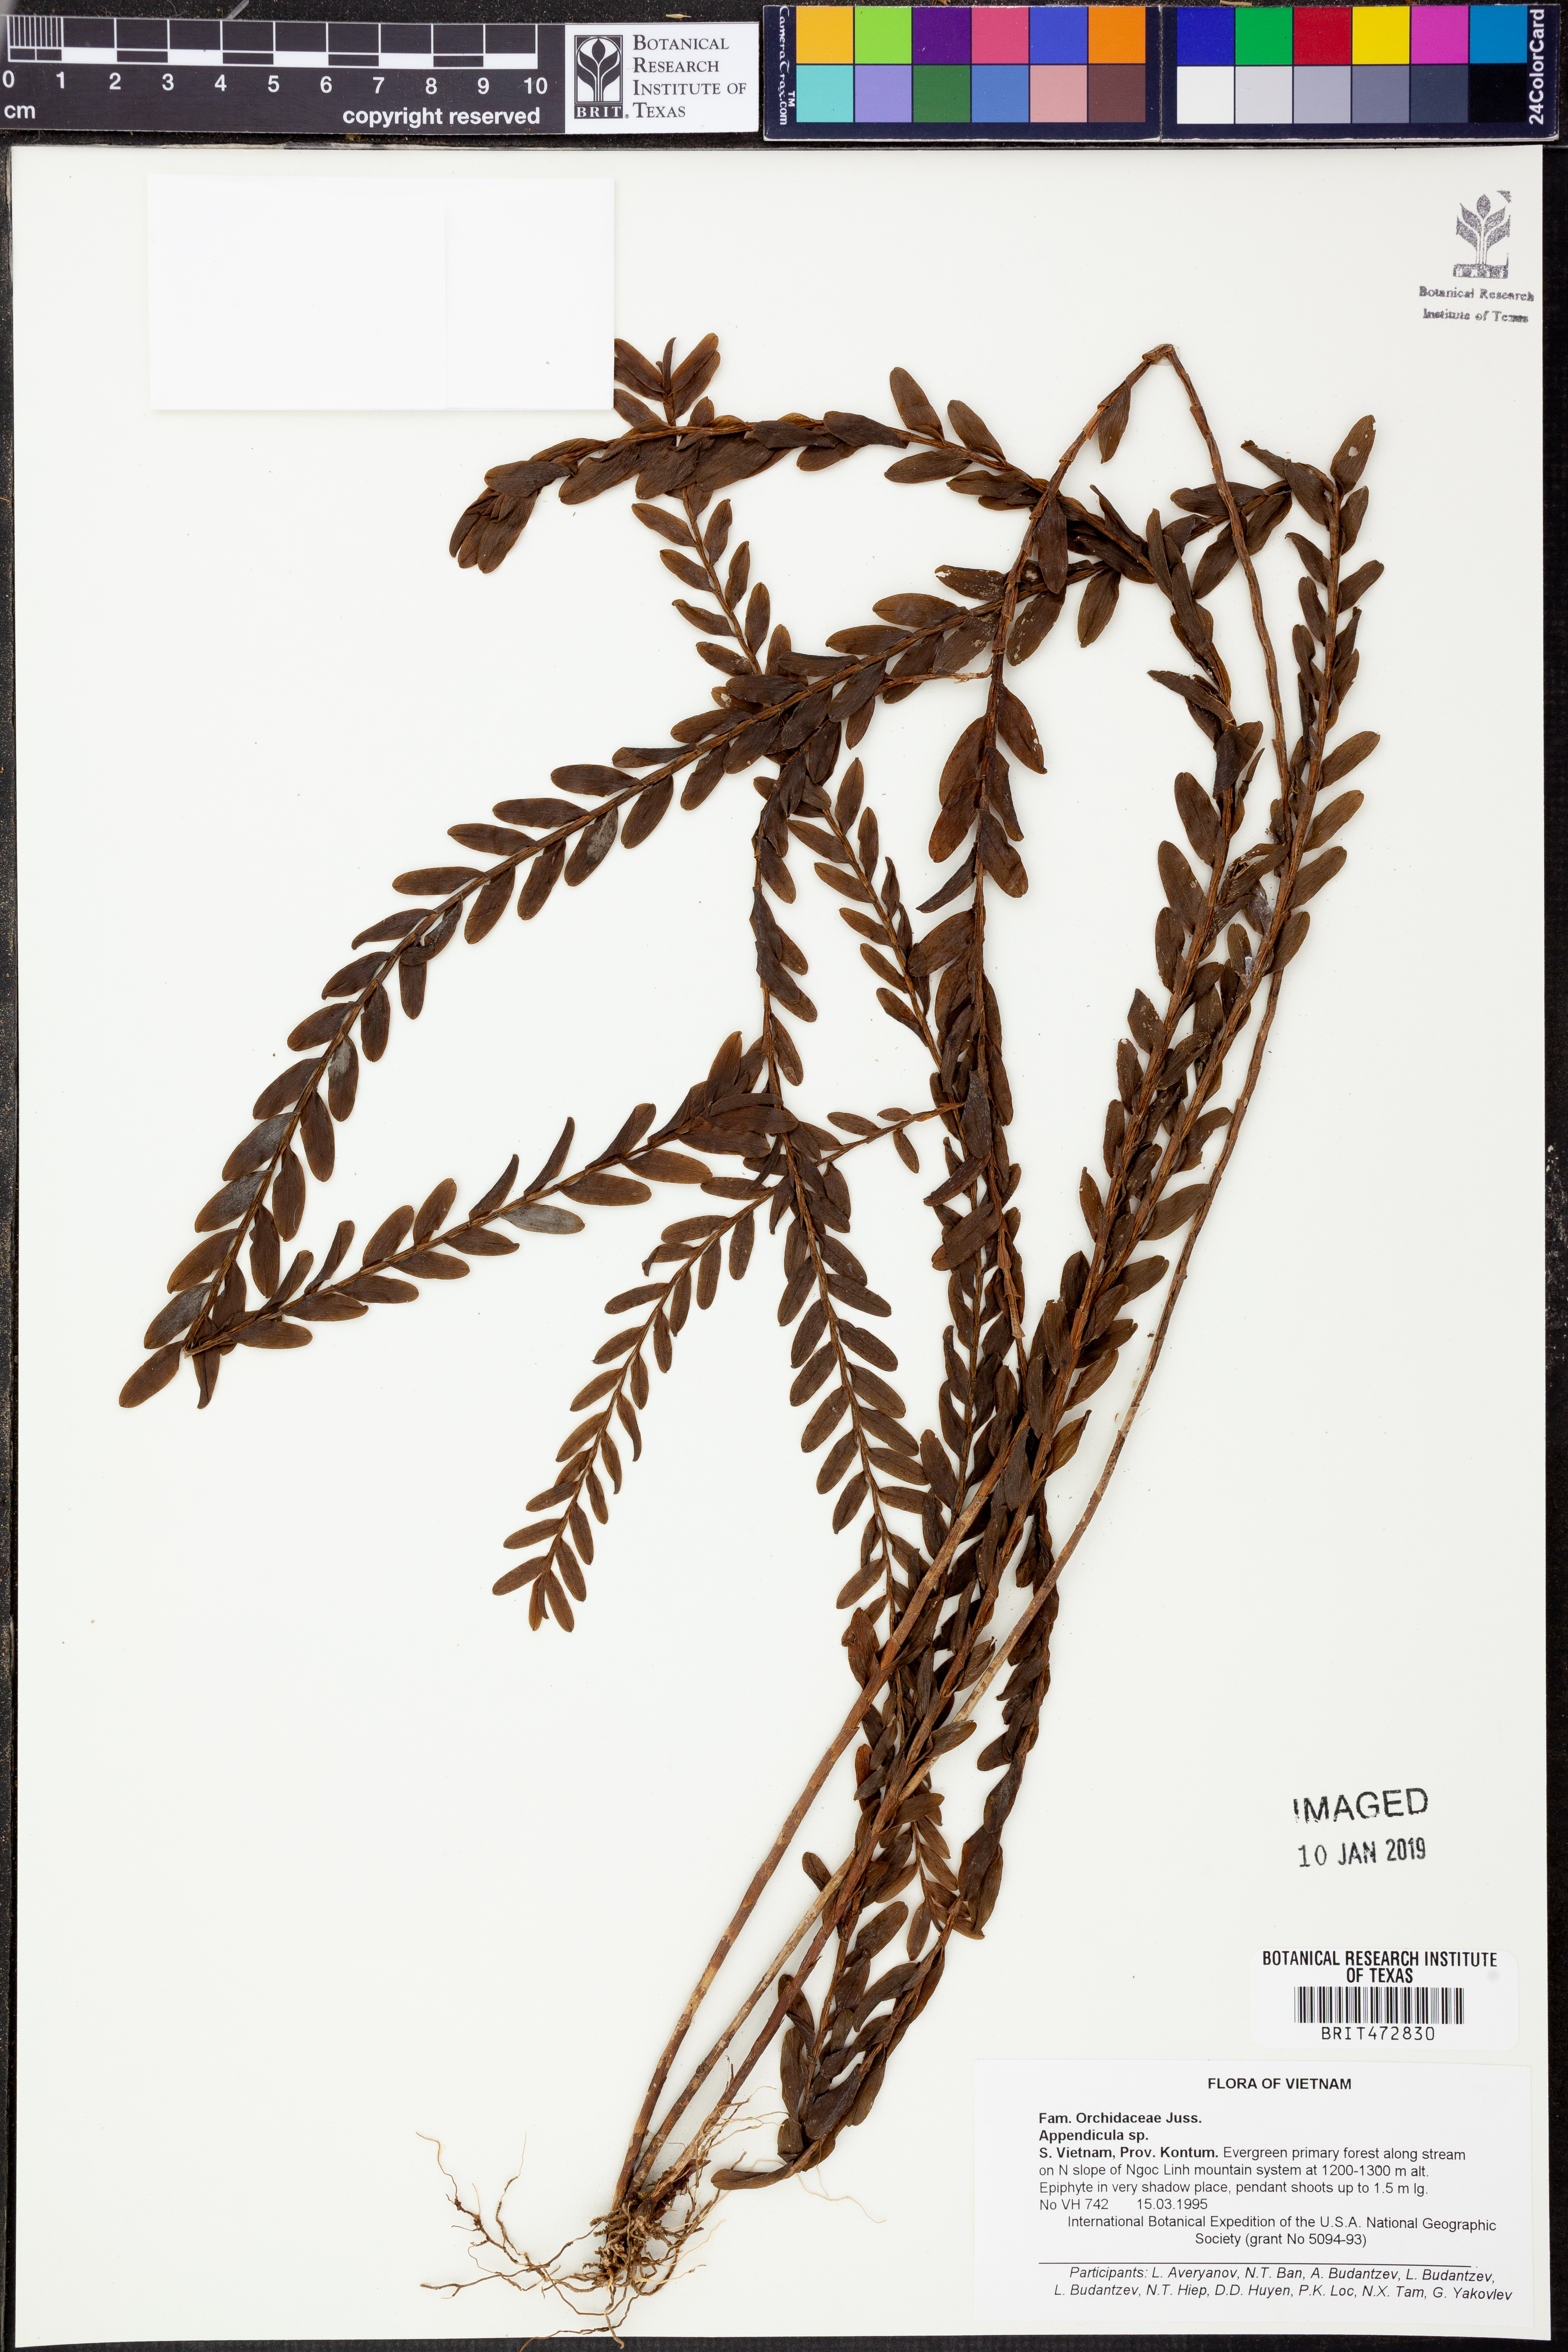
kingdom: Plantae
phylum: Tracheophyta
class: Liliopsida
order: Asparagales
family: Orchidaceae
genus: Appendicula
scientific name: Appendicula
